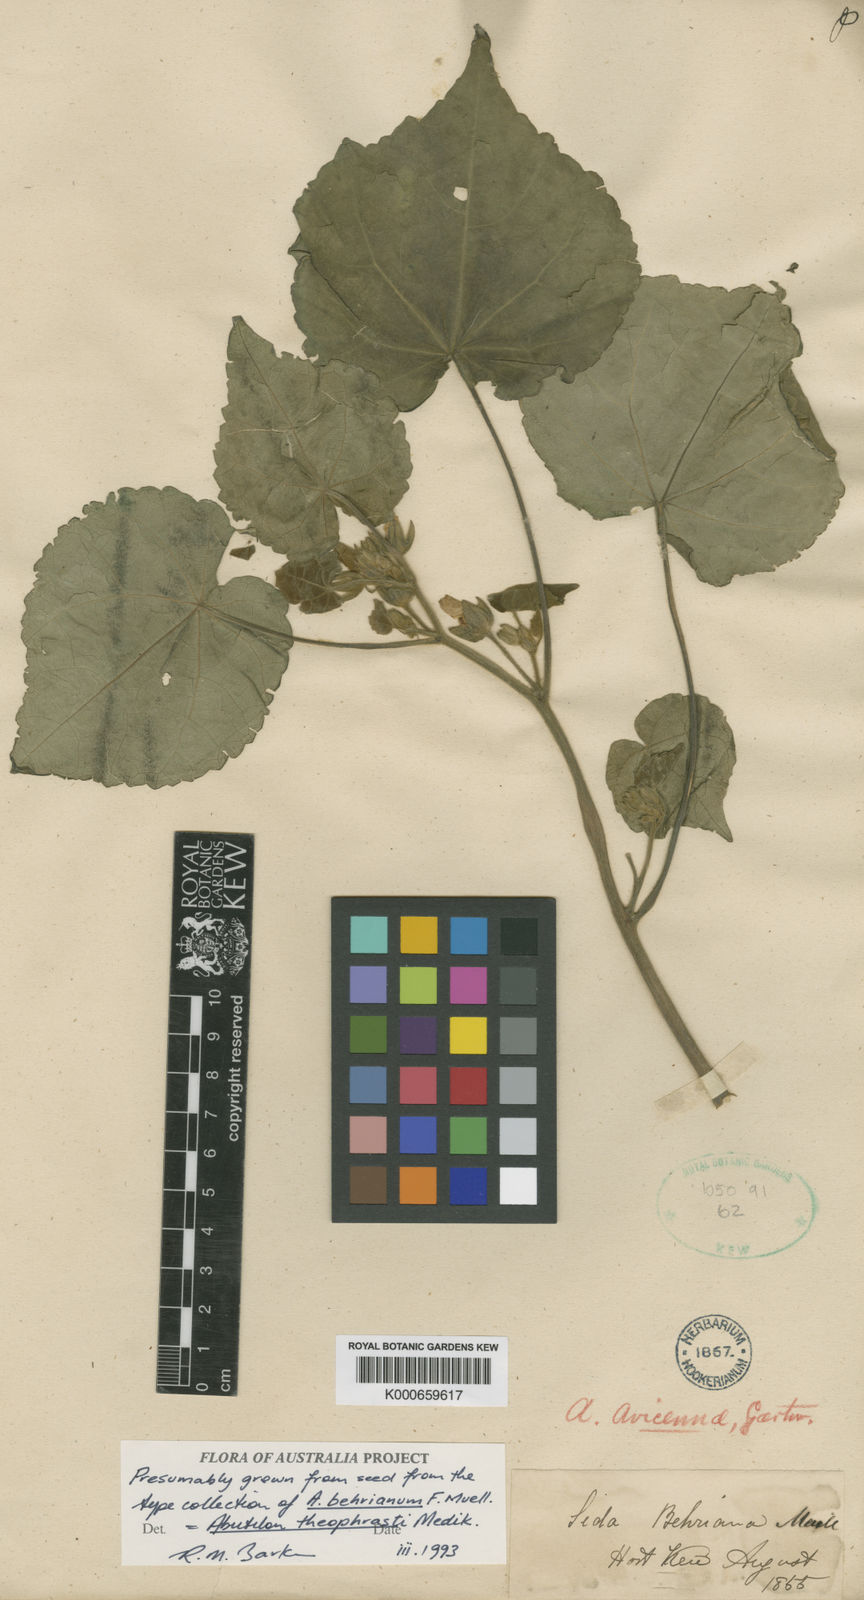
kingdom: Plantae
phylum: Tracheophyta
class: Magnoliopsida
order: Malvales
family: Malvaceae
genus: Abutilon
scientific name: Abutilon theophrasti
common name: Velvetleaf
